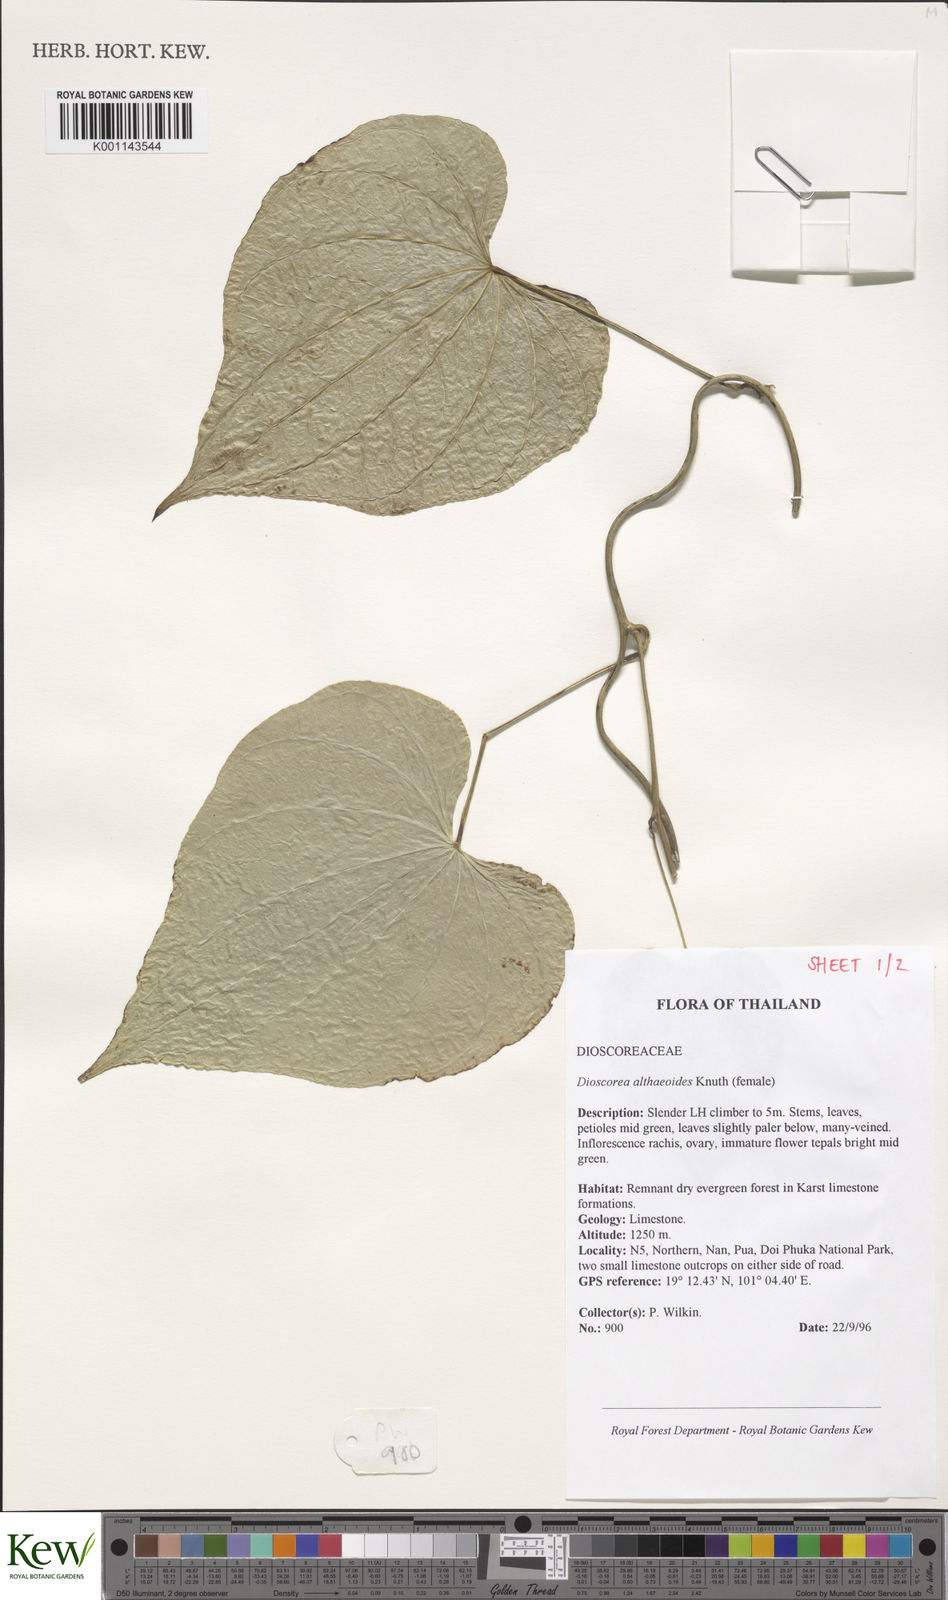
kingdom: Plantae
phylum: Tracheophyta
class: Liliopsida
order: Dioscoreales
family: Dioscoreaceae
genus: Dioscorea
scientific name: Dioscorea rockii
